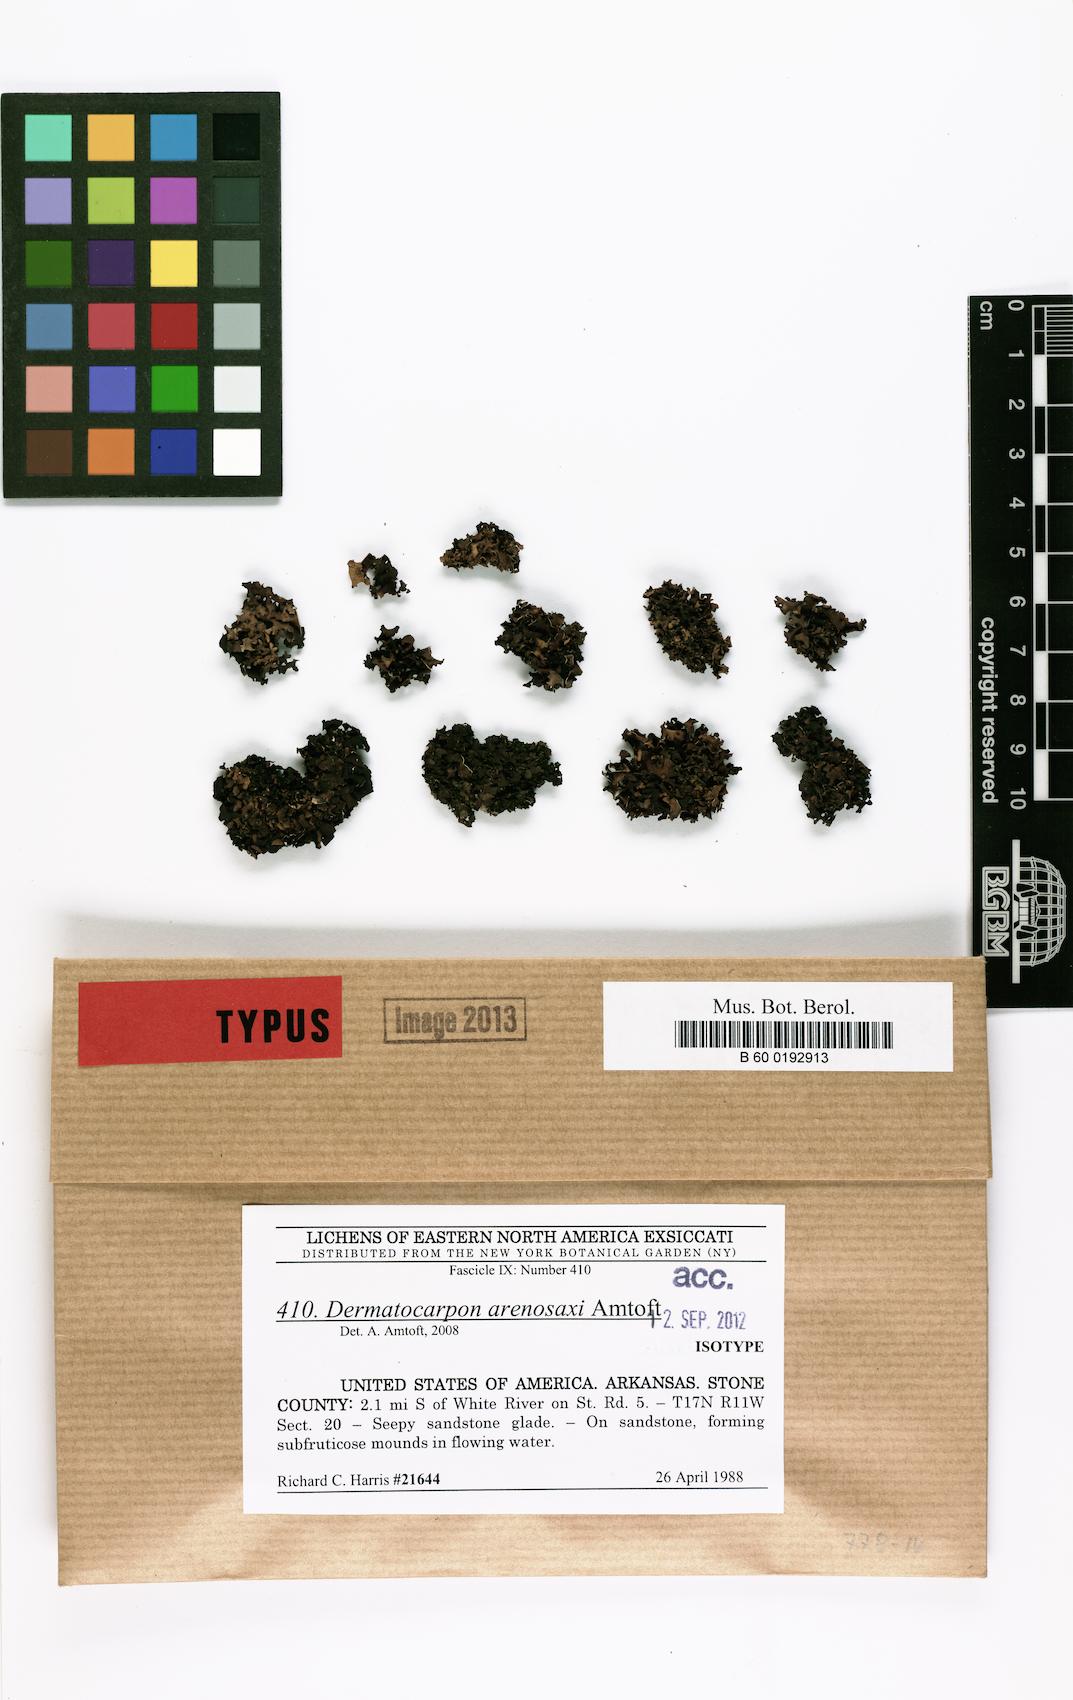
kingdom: Fungi
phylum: Ascomycota
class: Eurotiomycetes
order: Verrucariales
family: Verrucariaceae
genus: Dermatocarpon
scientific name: Dermatocarpon arenosaxi
